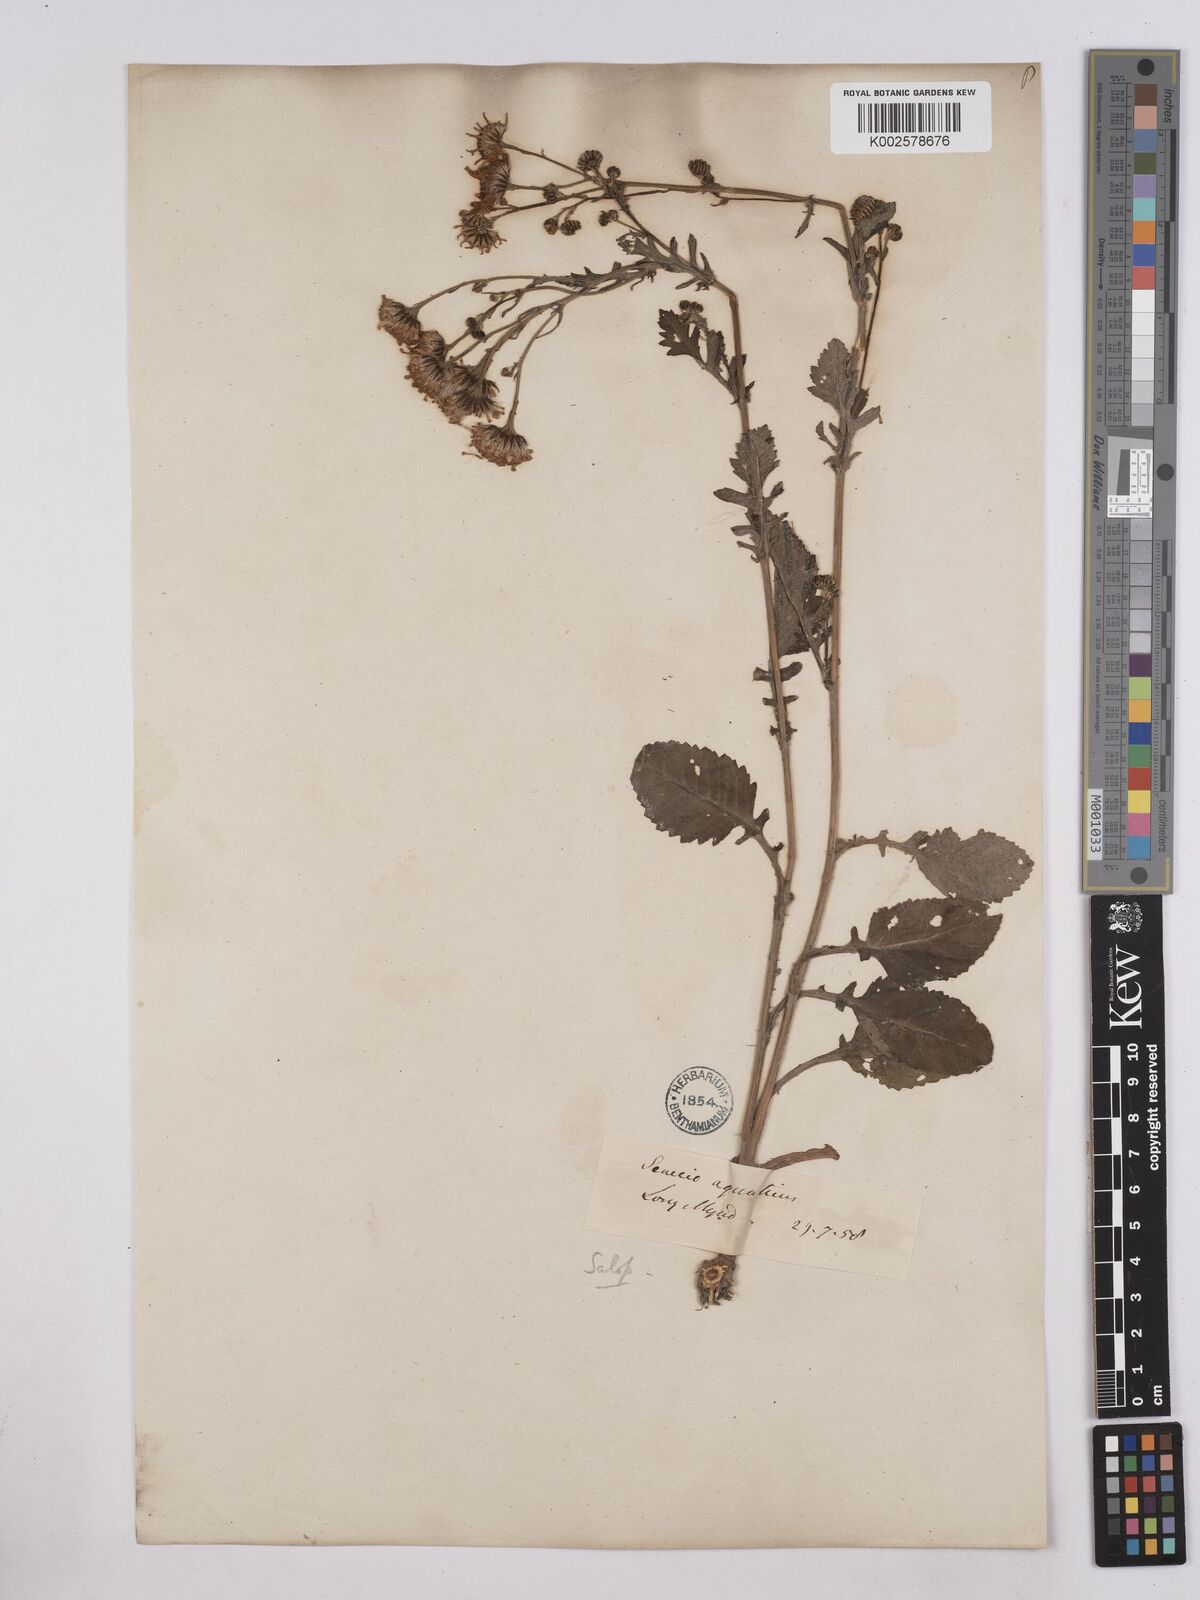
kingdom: Plantae
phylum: Tracheophyta
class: Magnoliopsida
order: Asterales
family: Asteraceae
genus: Jacobaea
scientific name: Jacobaea aquatica
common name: Water ragwort
